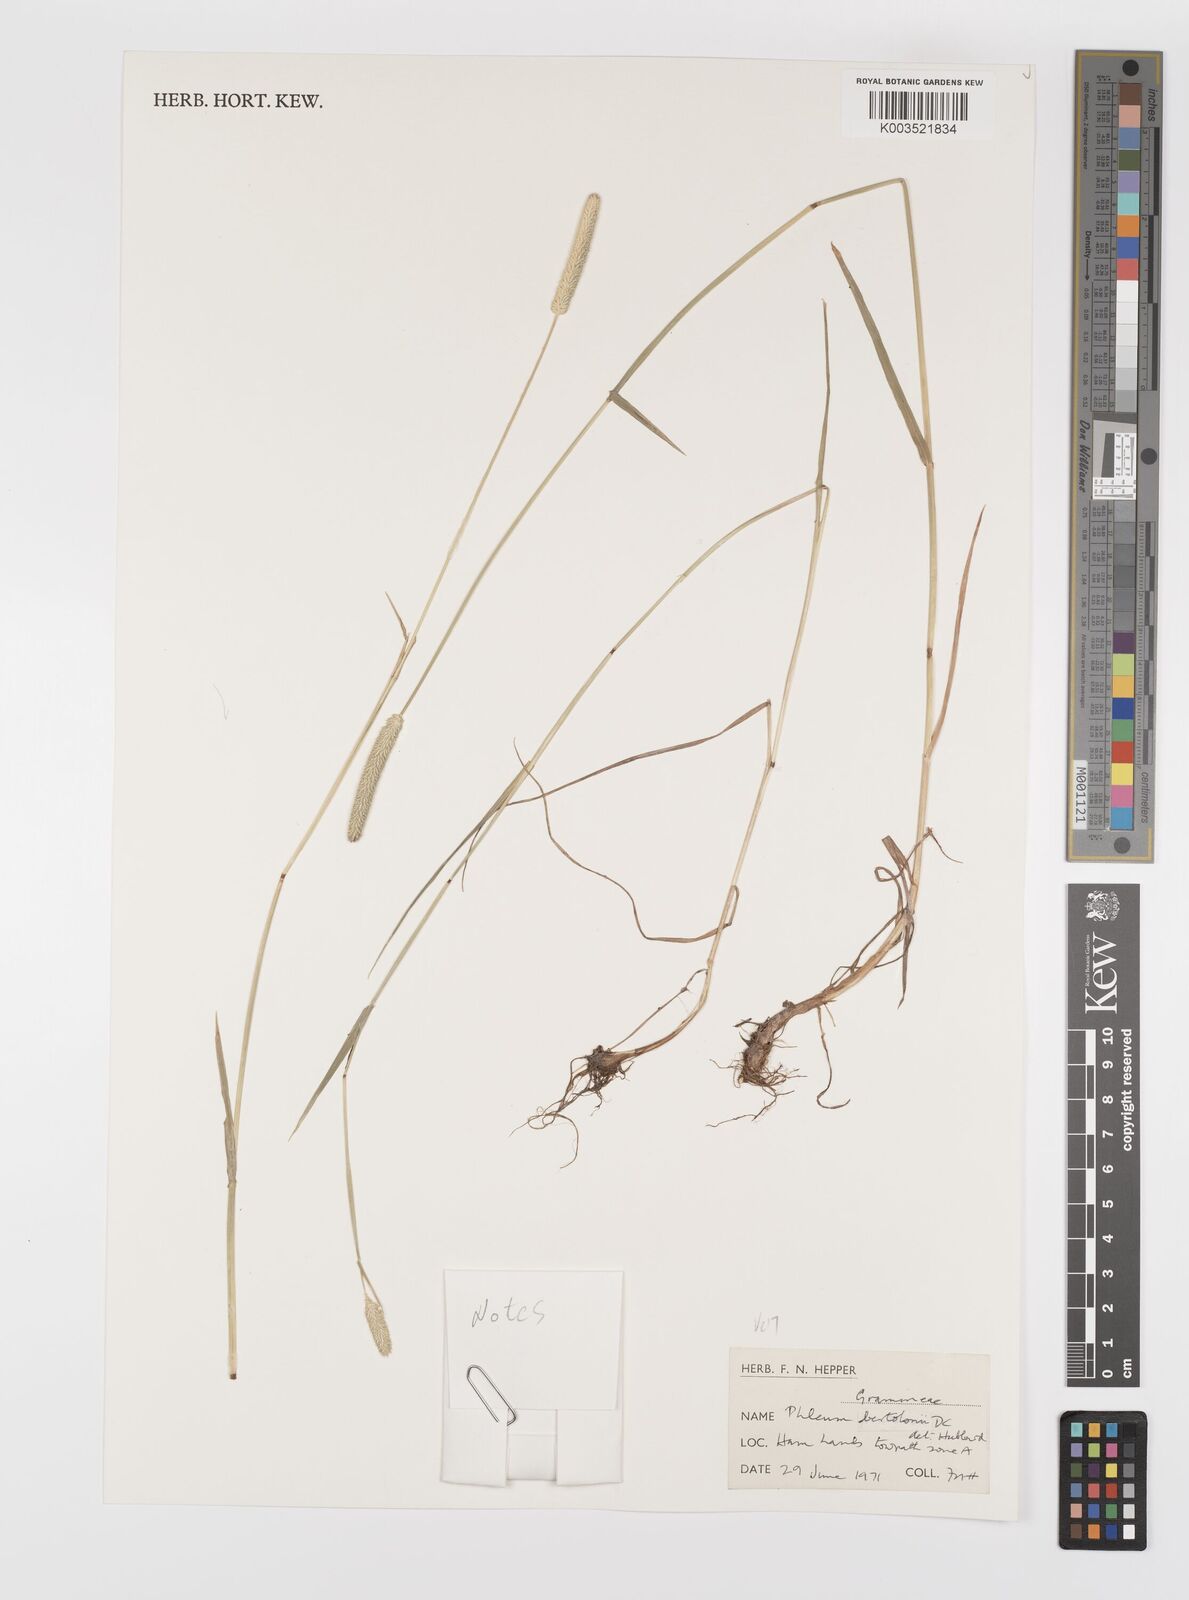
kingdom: Plantae
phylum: Tracheophyta
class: Liliopsida
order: Poales
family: Poaceae
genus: Phleum
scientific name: Phleum bertolonii
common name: Smaller cat's-tail
